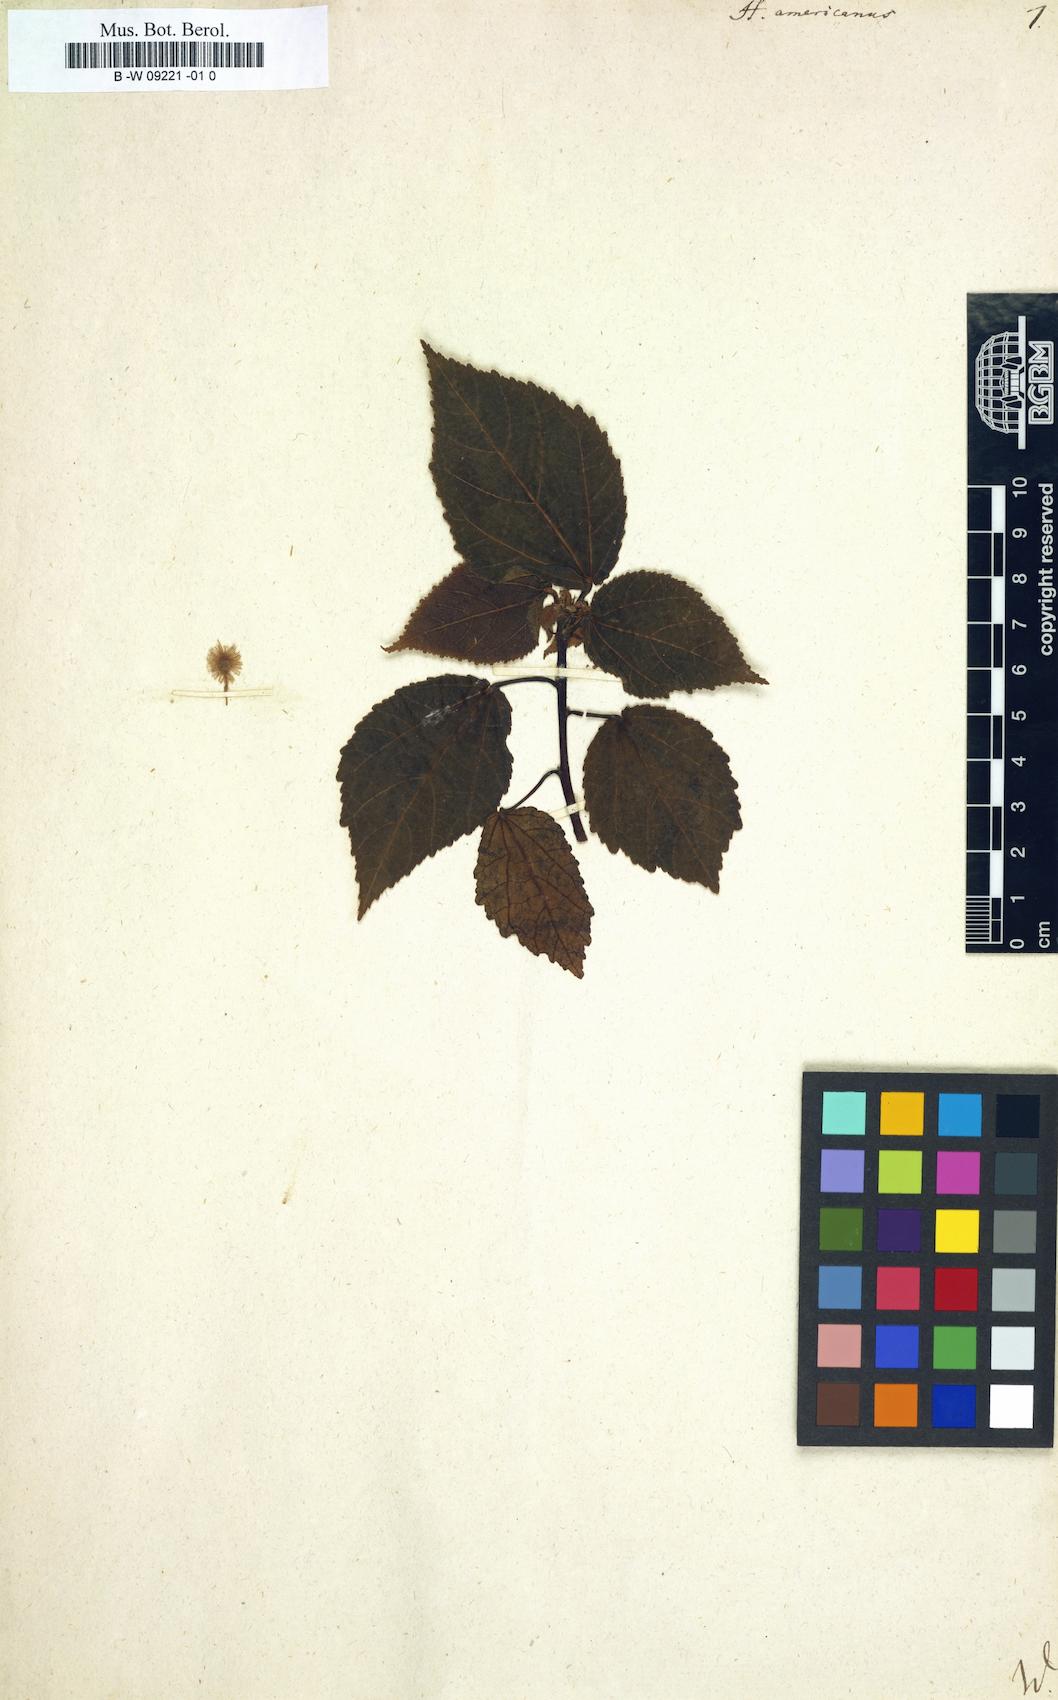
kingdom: Plantae
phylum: Tracheophyta
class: Magnoliopsida
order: Malvales
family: Malvaceae
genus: Heliocarpus
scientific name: Heliocarpus americanus
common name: White moho
